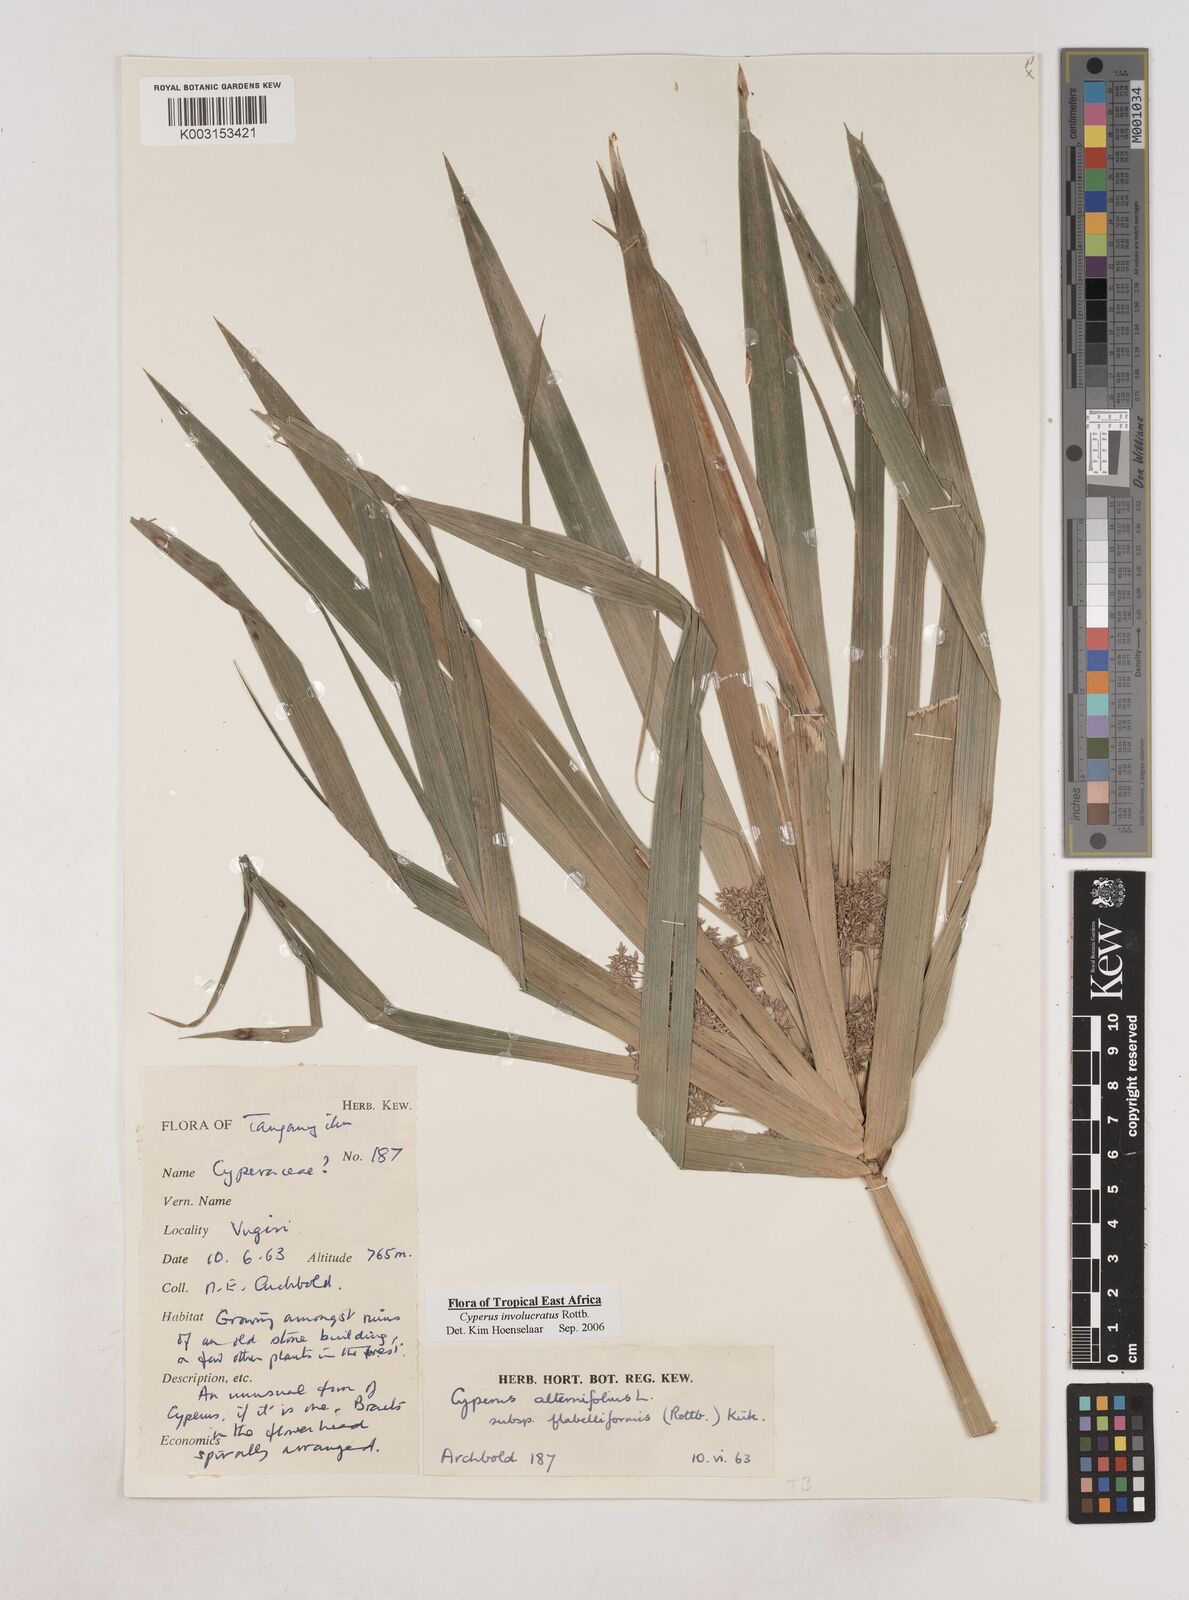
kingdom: Plantae
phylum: Tracheophyta
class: Liliopsida
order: Poales
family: Cyperaceae
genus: Cyperus
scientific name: Cyperus alternifolius
